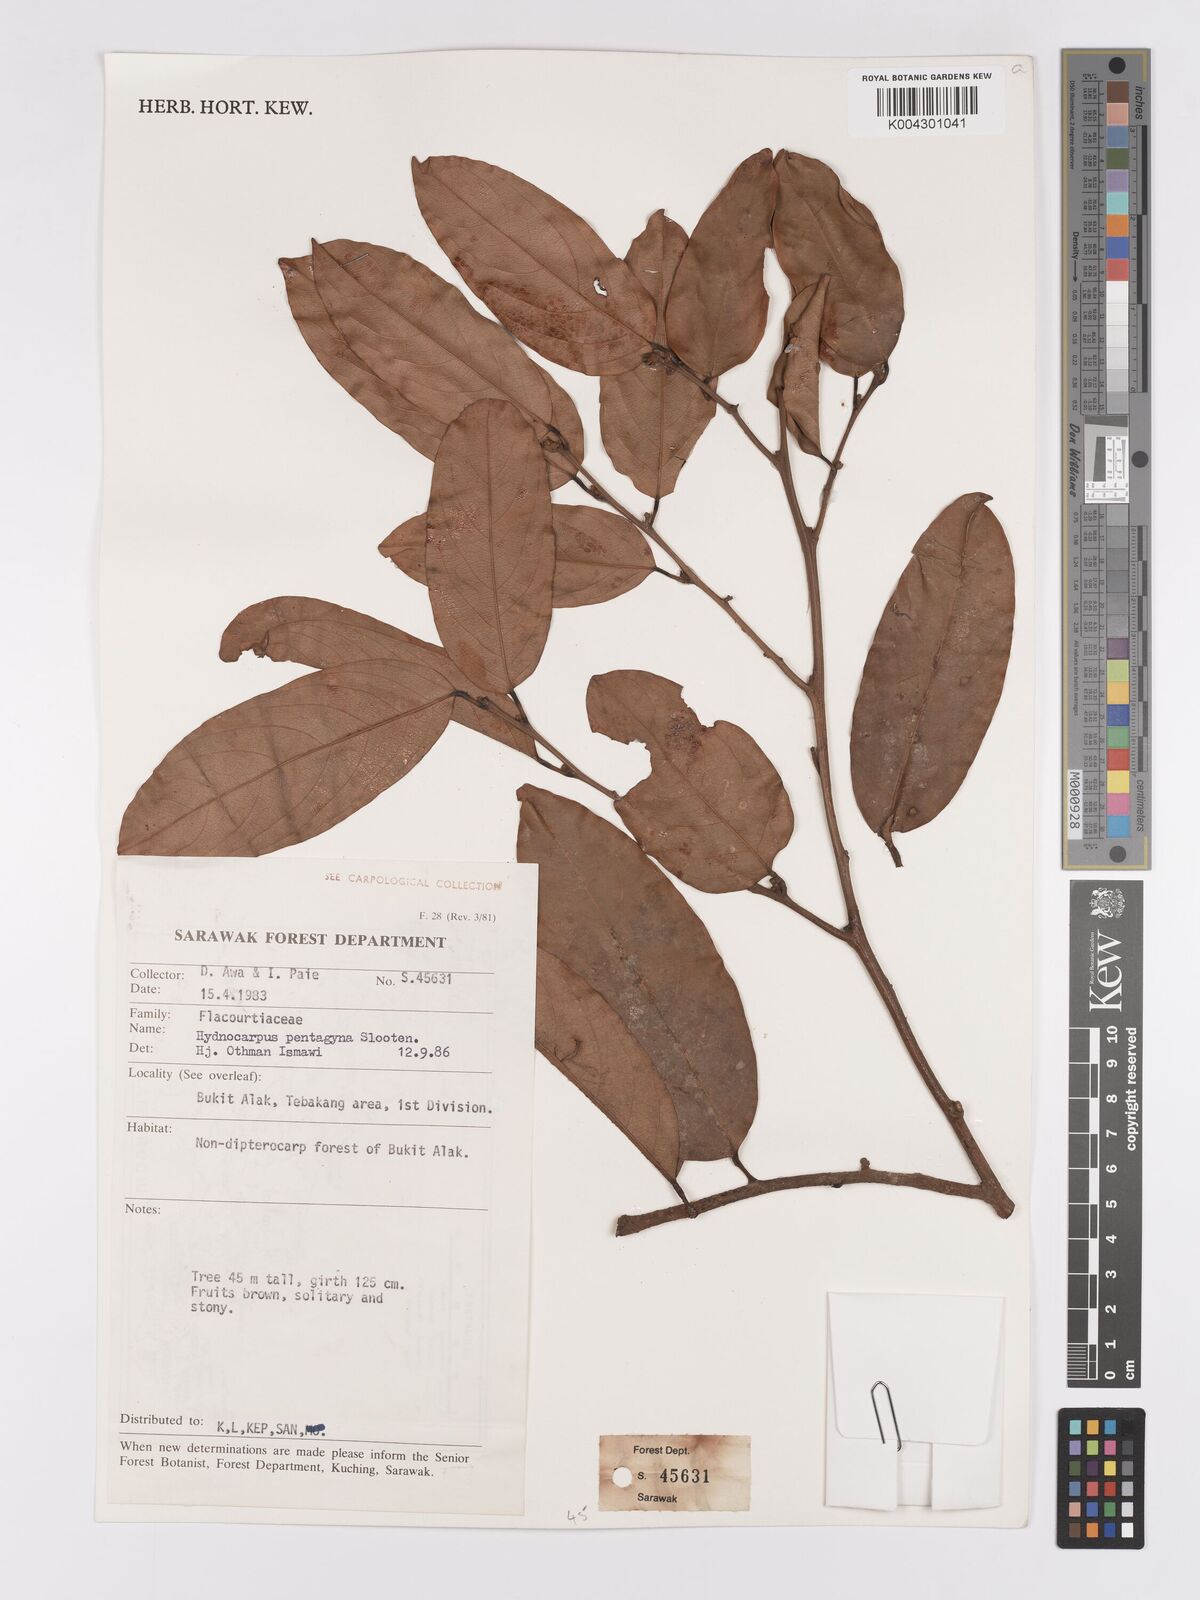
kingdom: Plantae
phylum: Tracheophyta
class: Magnoliopsida
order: Malpighiales
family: Achariaceae
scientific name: Achariaceae
